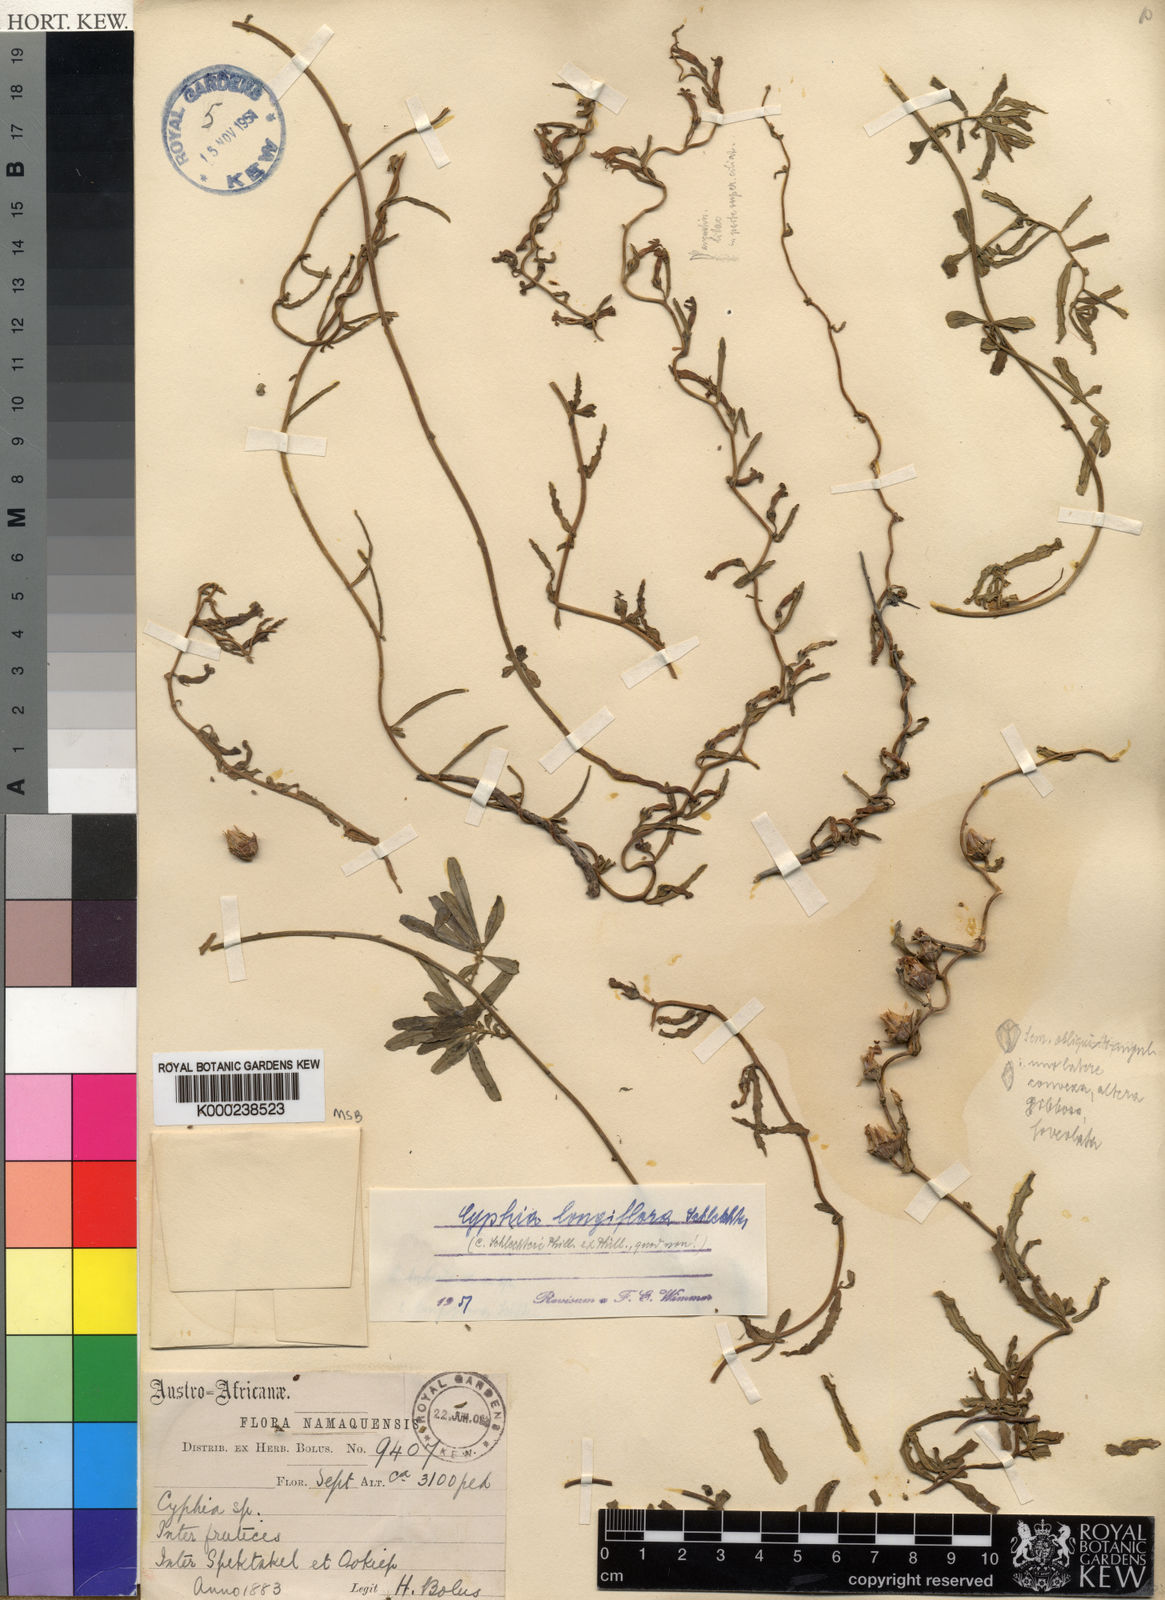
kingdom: Plantae
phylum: Tracheophyta
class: Magnoliopsida
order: Asterales
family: Campanulaceae
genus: Cyphia
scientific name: Cyphia longiflora
